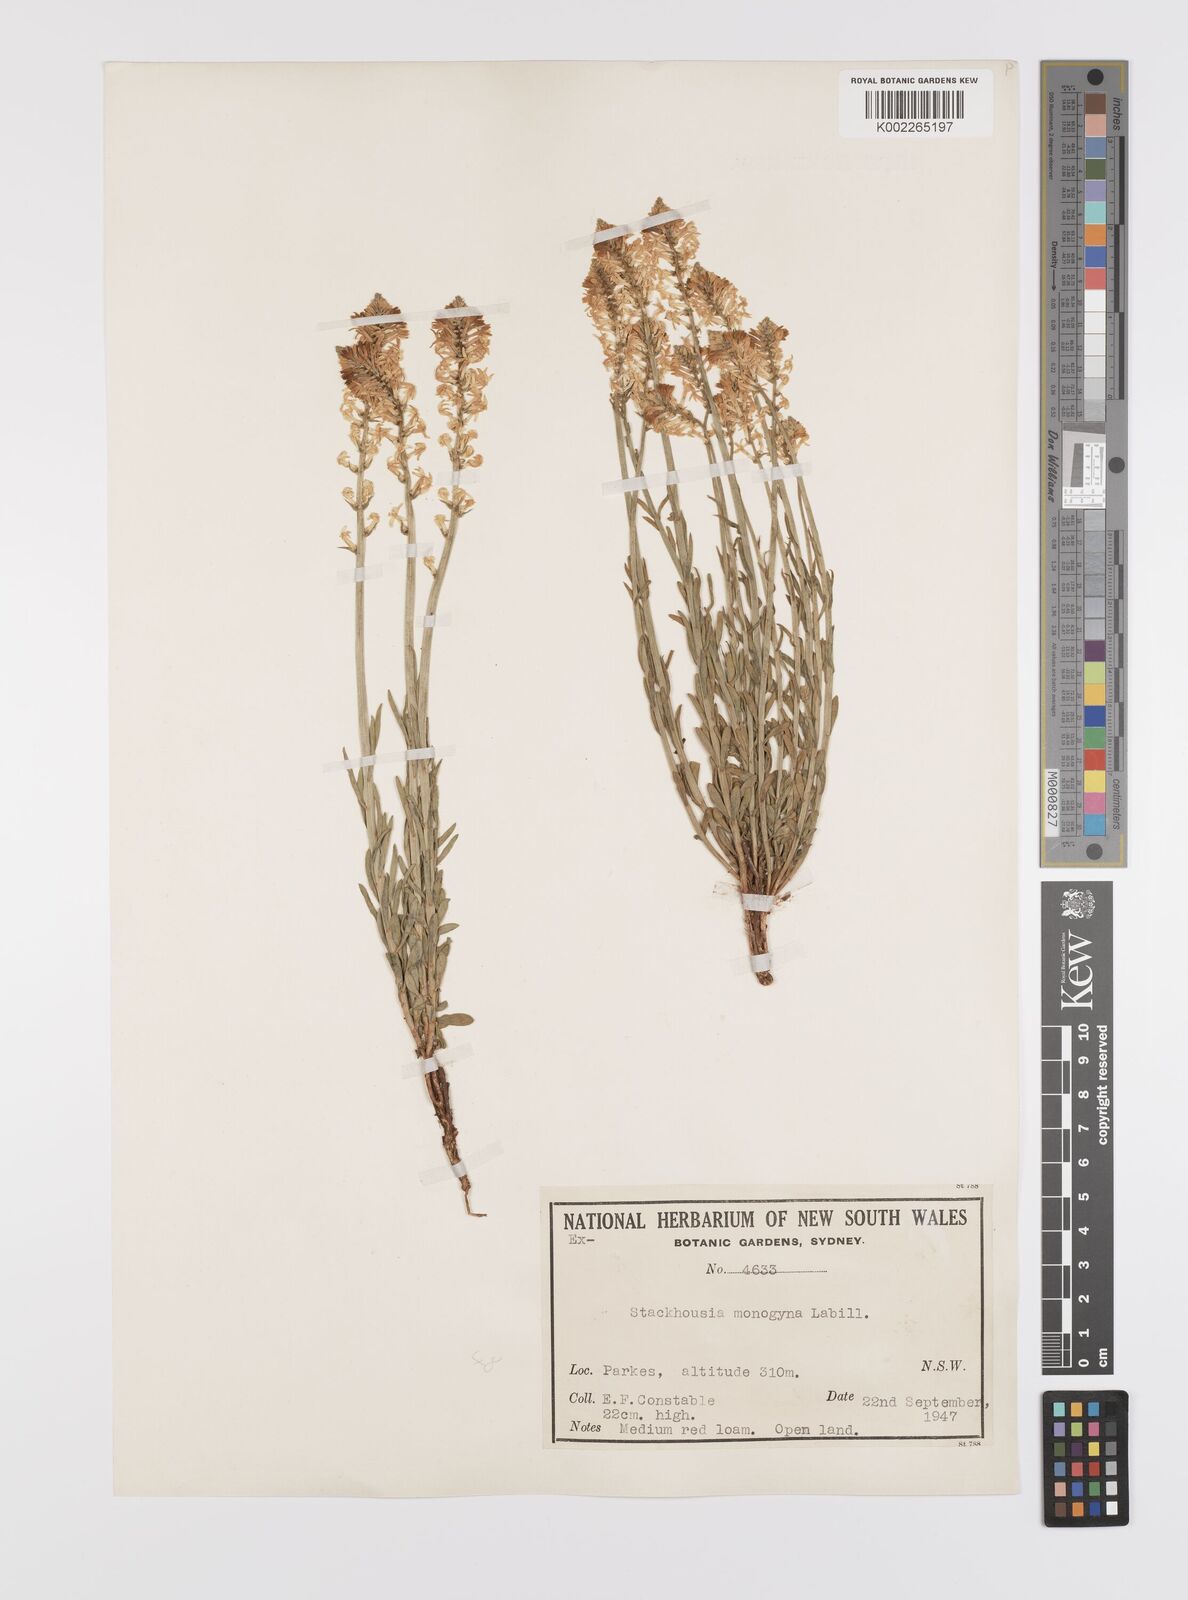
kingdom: Plantae
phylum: Tracheophyta
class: Magnoliopsida
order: Celastrales
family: Celastraceae
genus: Stackhousia
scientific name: Stackhousia monogyna
